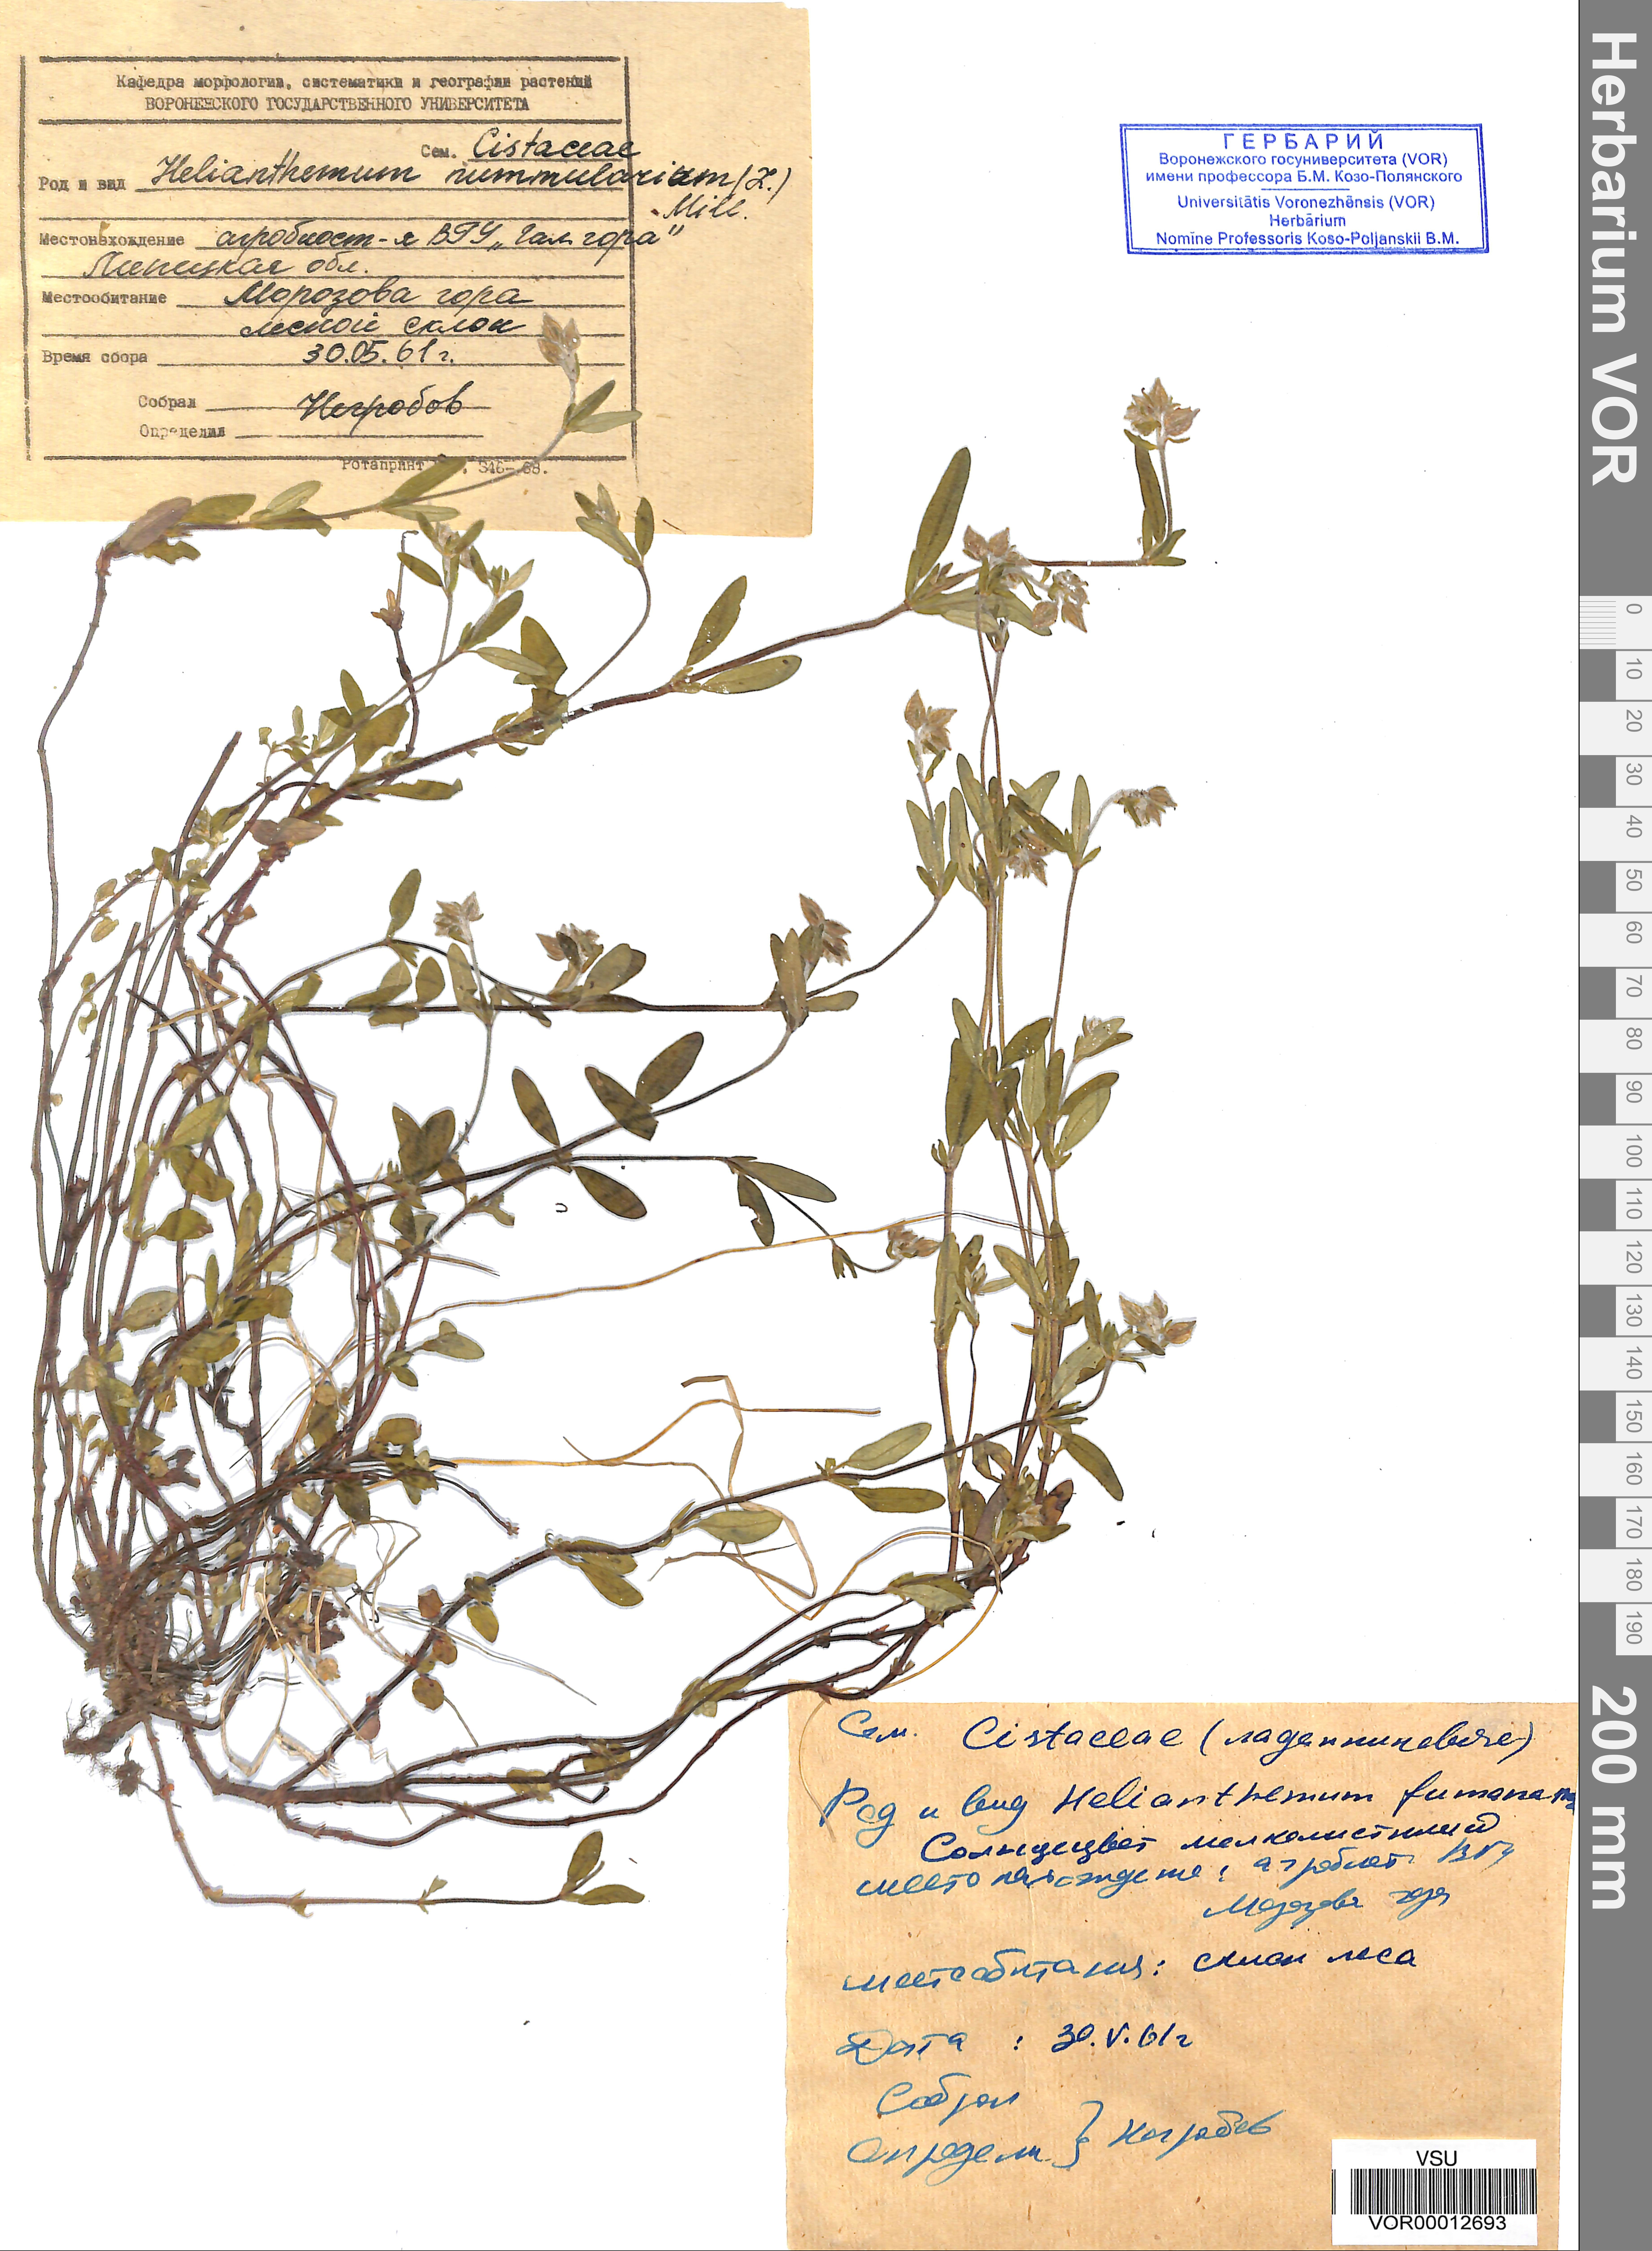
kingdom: Plantae
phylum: Tracheophyta
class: Magnoliopsida
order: Malvales
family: Cistaceae
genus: Helianthemum
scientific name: Helianthemum nummularium
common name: Common rock-rose
